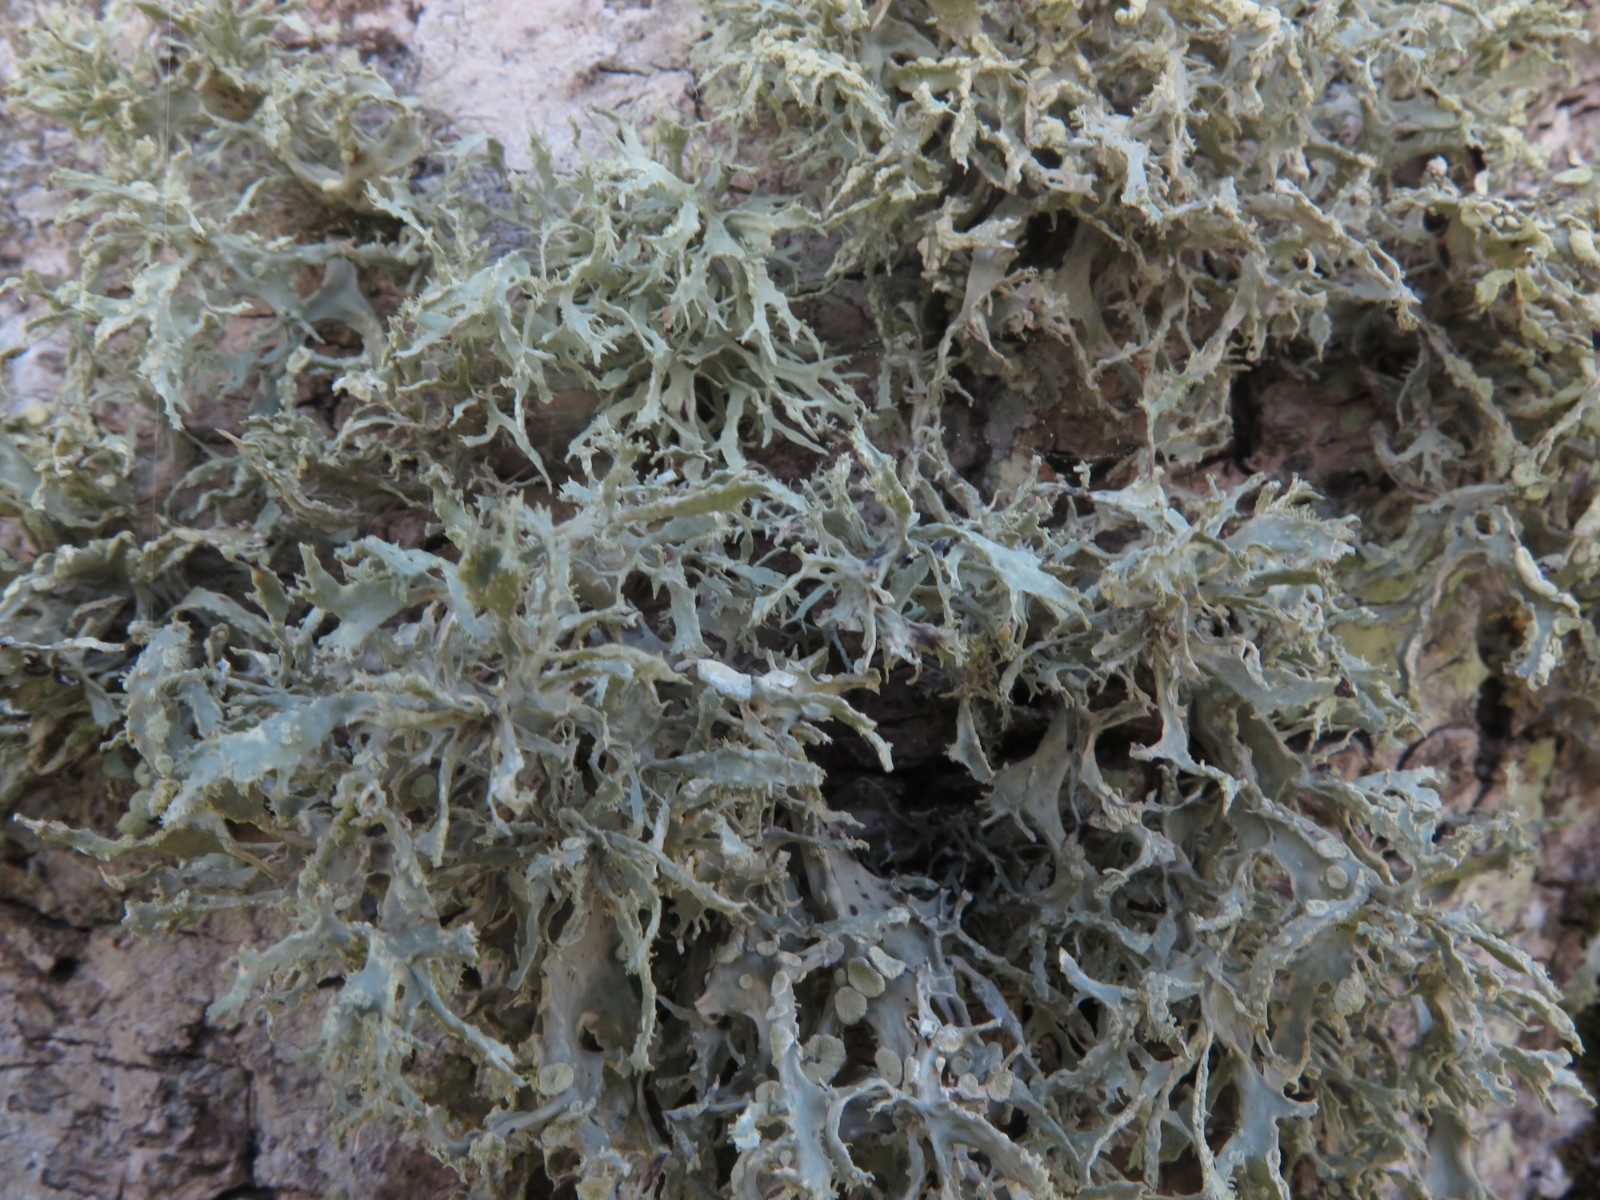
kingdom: Fungi
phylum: Ascomycota
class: Lecanoromycetes
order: Lecanorales
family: Ramalinaceae
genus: Ramalina
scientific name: Ramalina farinacea
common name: melet grenlav
